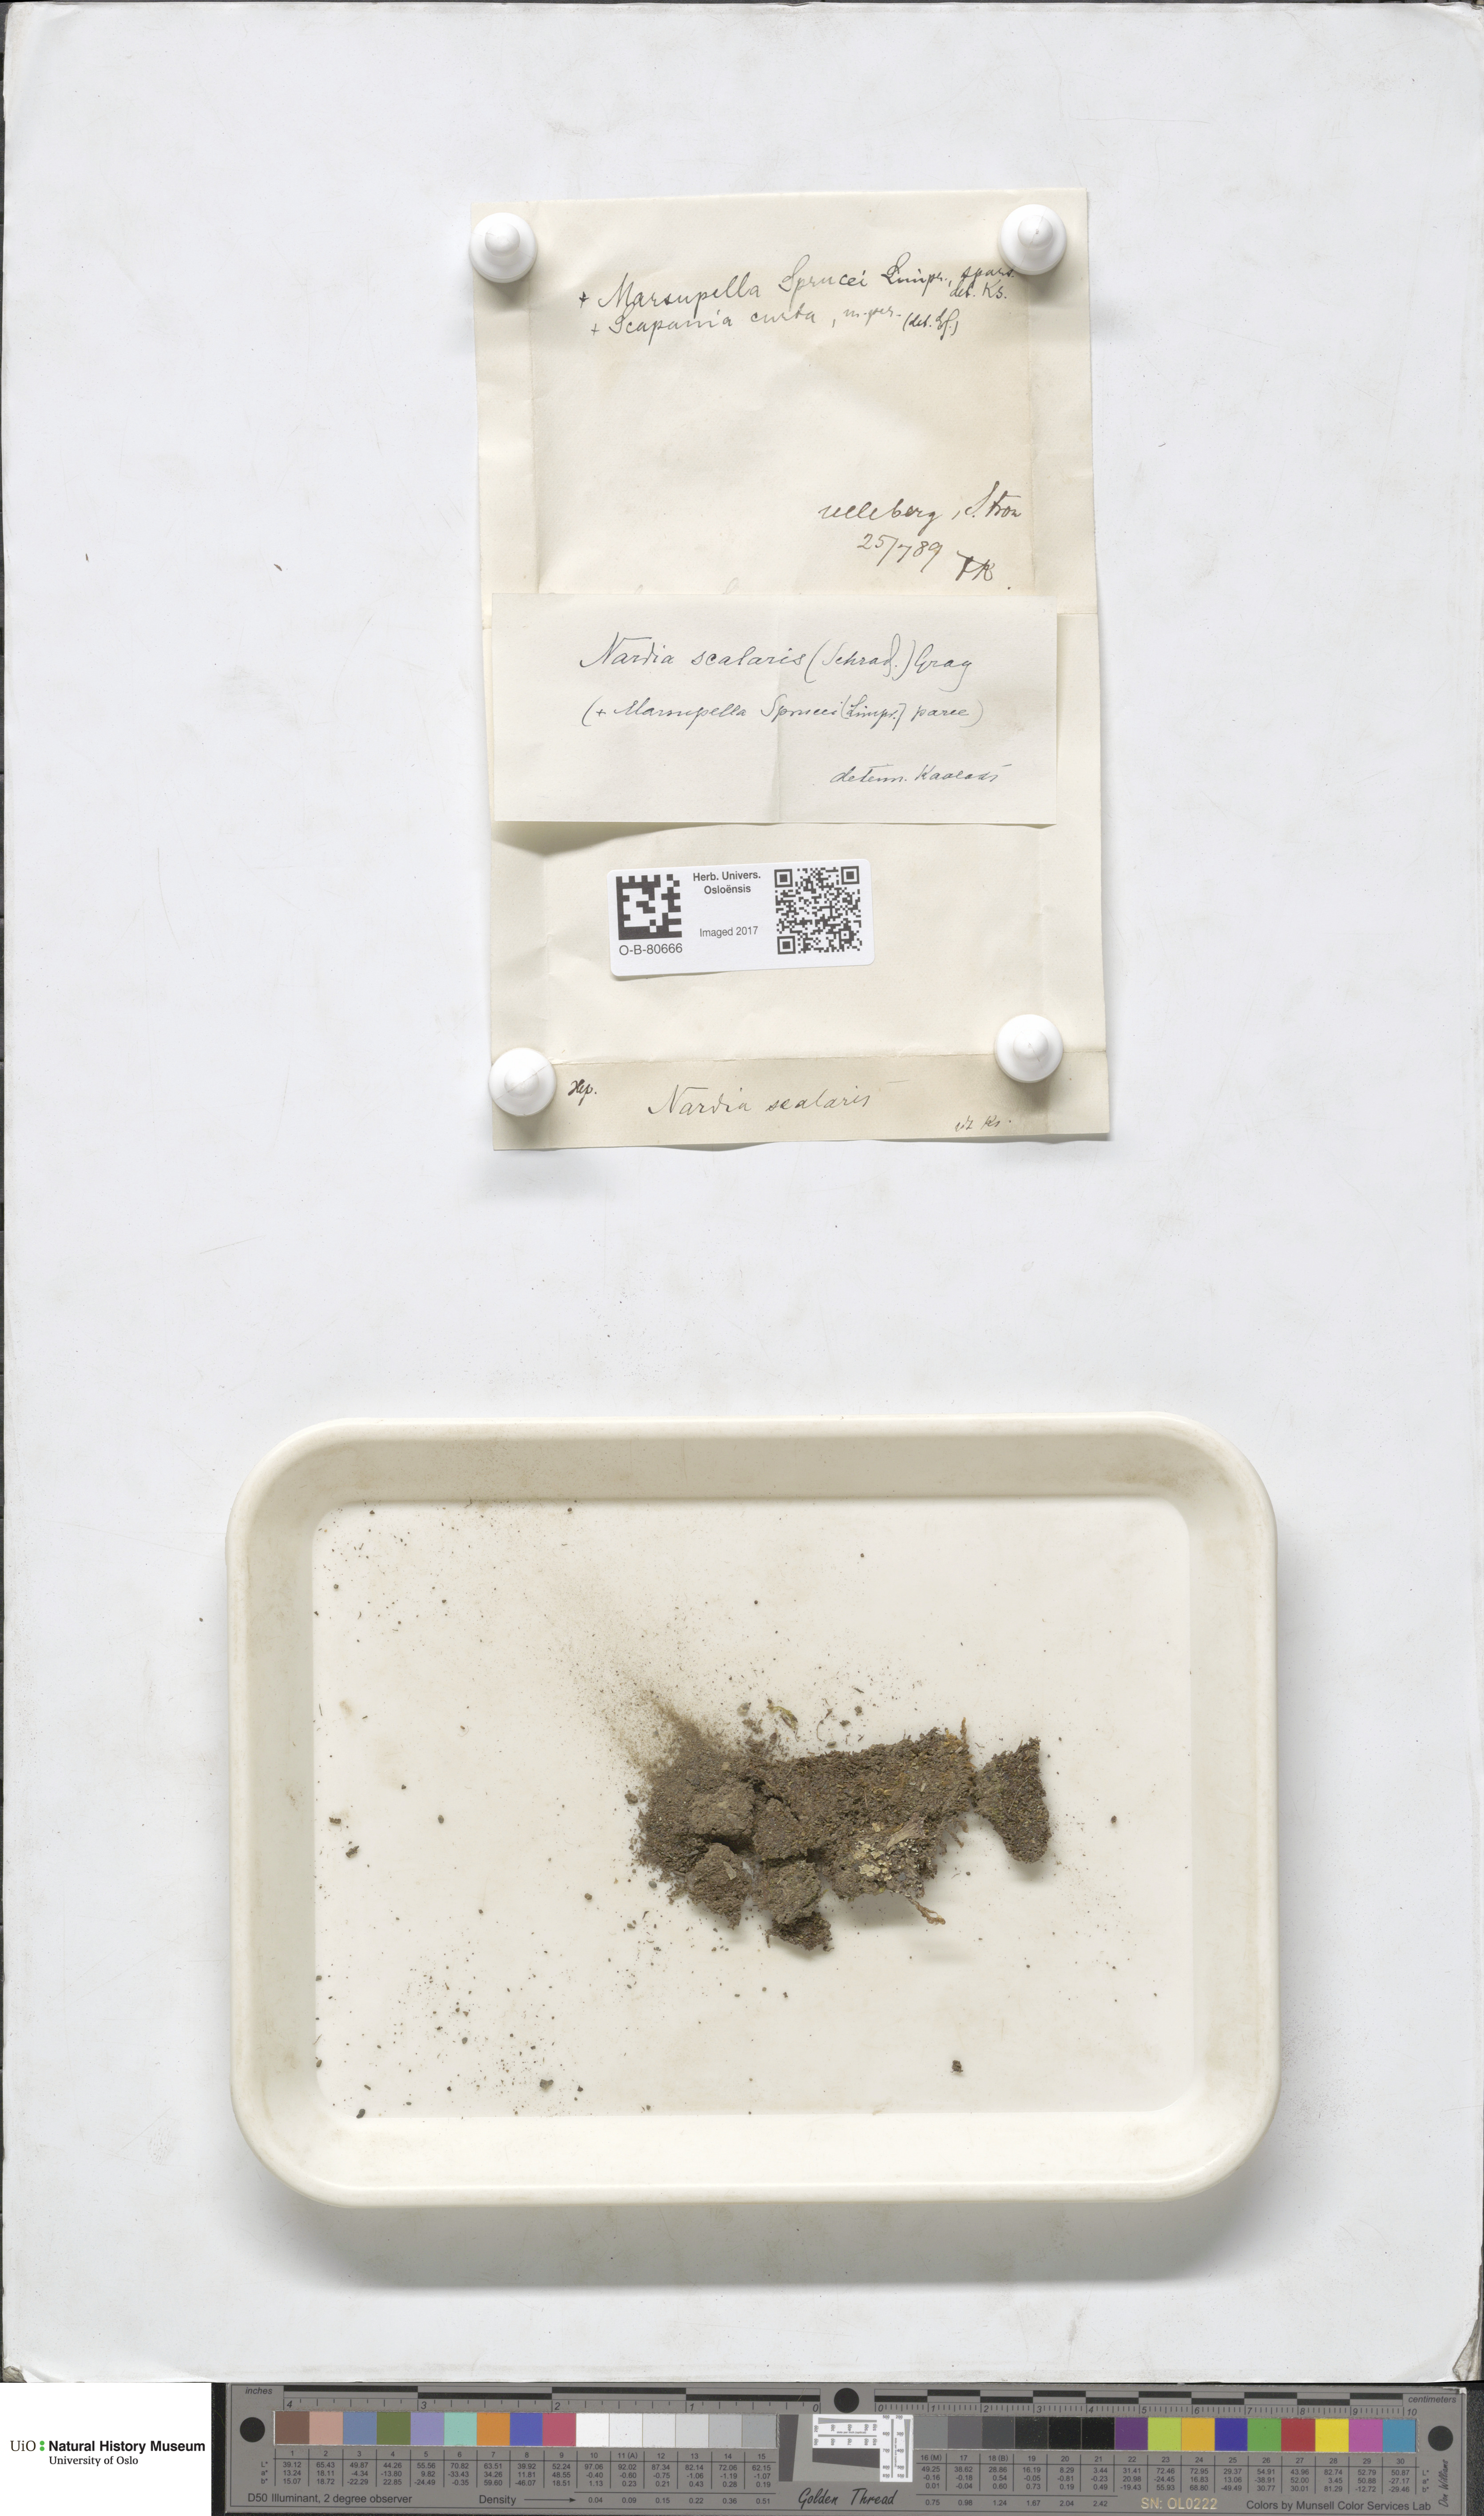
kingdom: Plantae
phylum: Marchantiophyta
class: Jungermanniopsida
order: Jungermanniales
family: Gymnomitriaceae
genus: Nardia
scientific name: Nardia scalaris
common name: Ladder flapwort
